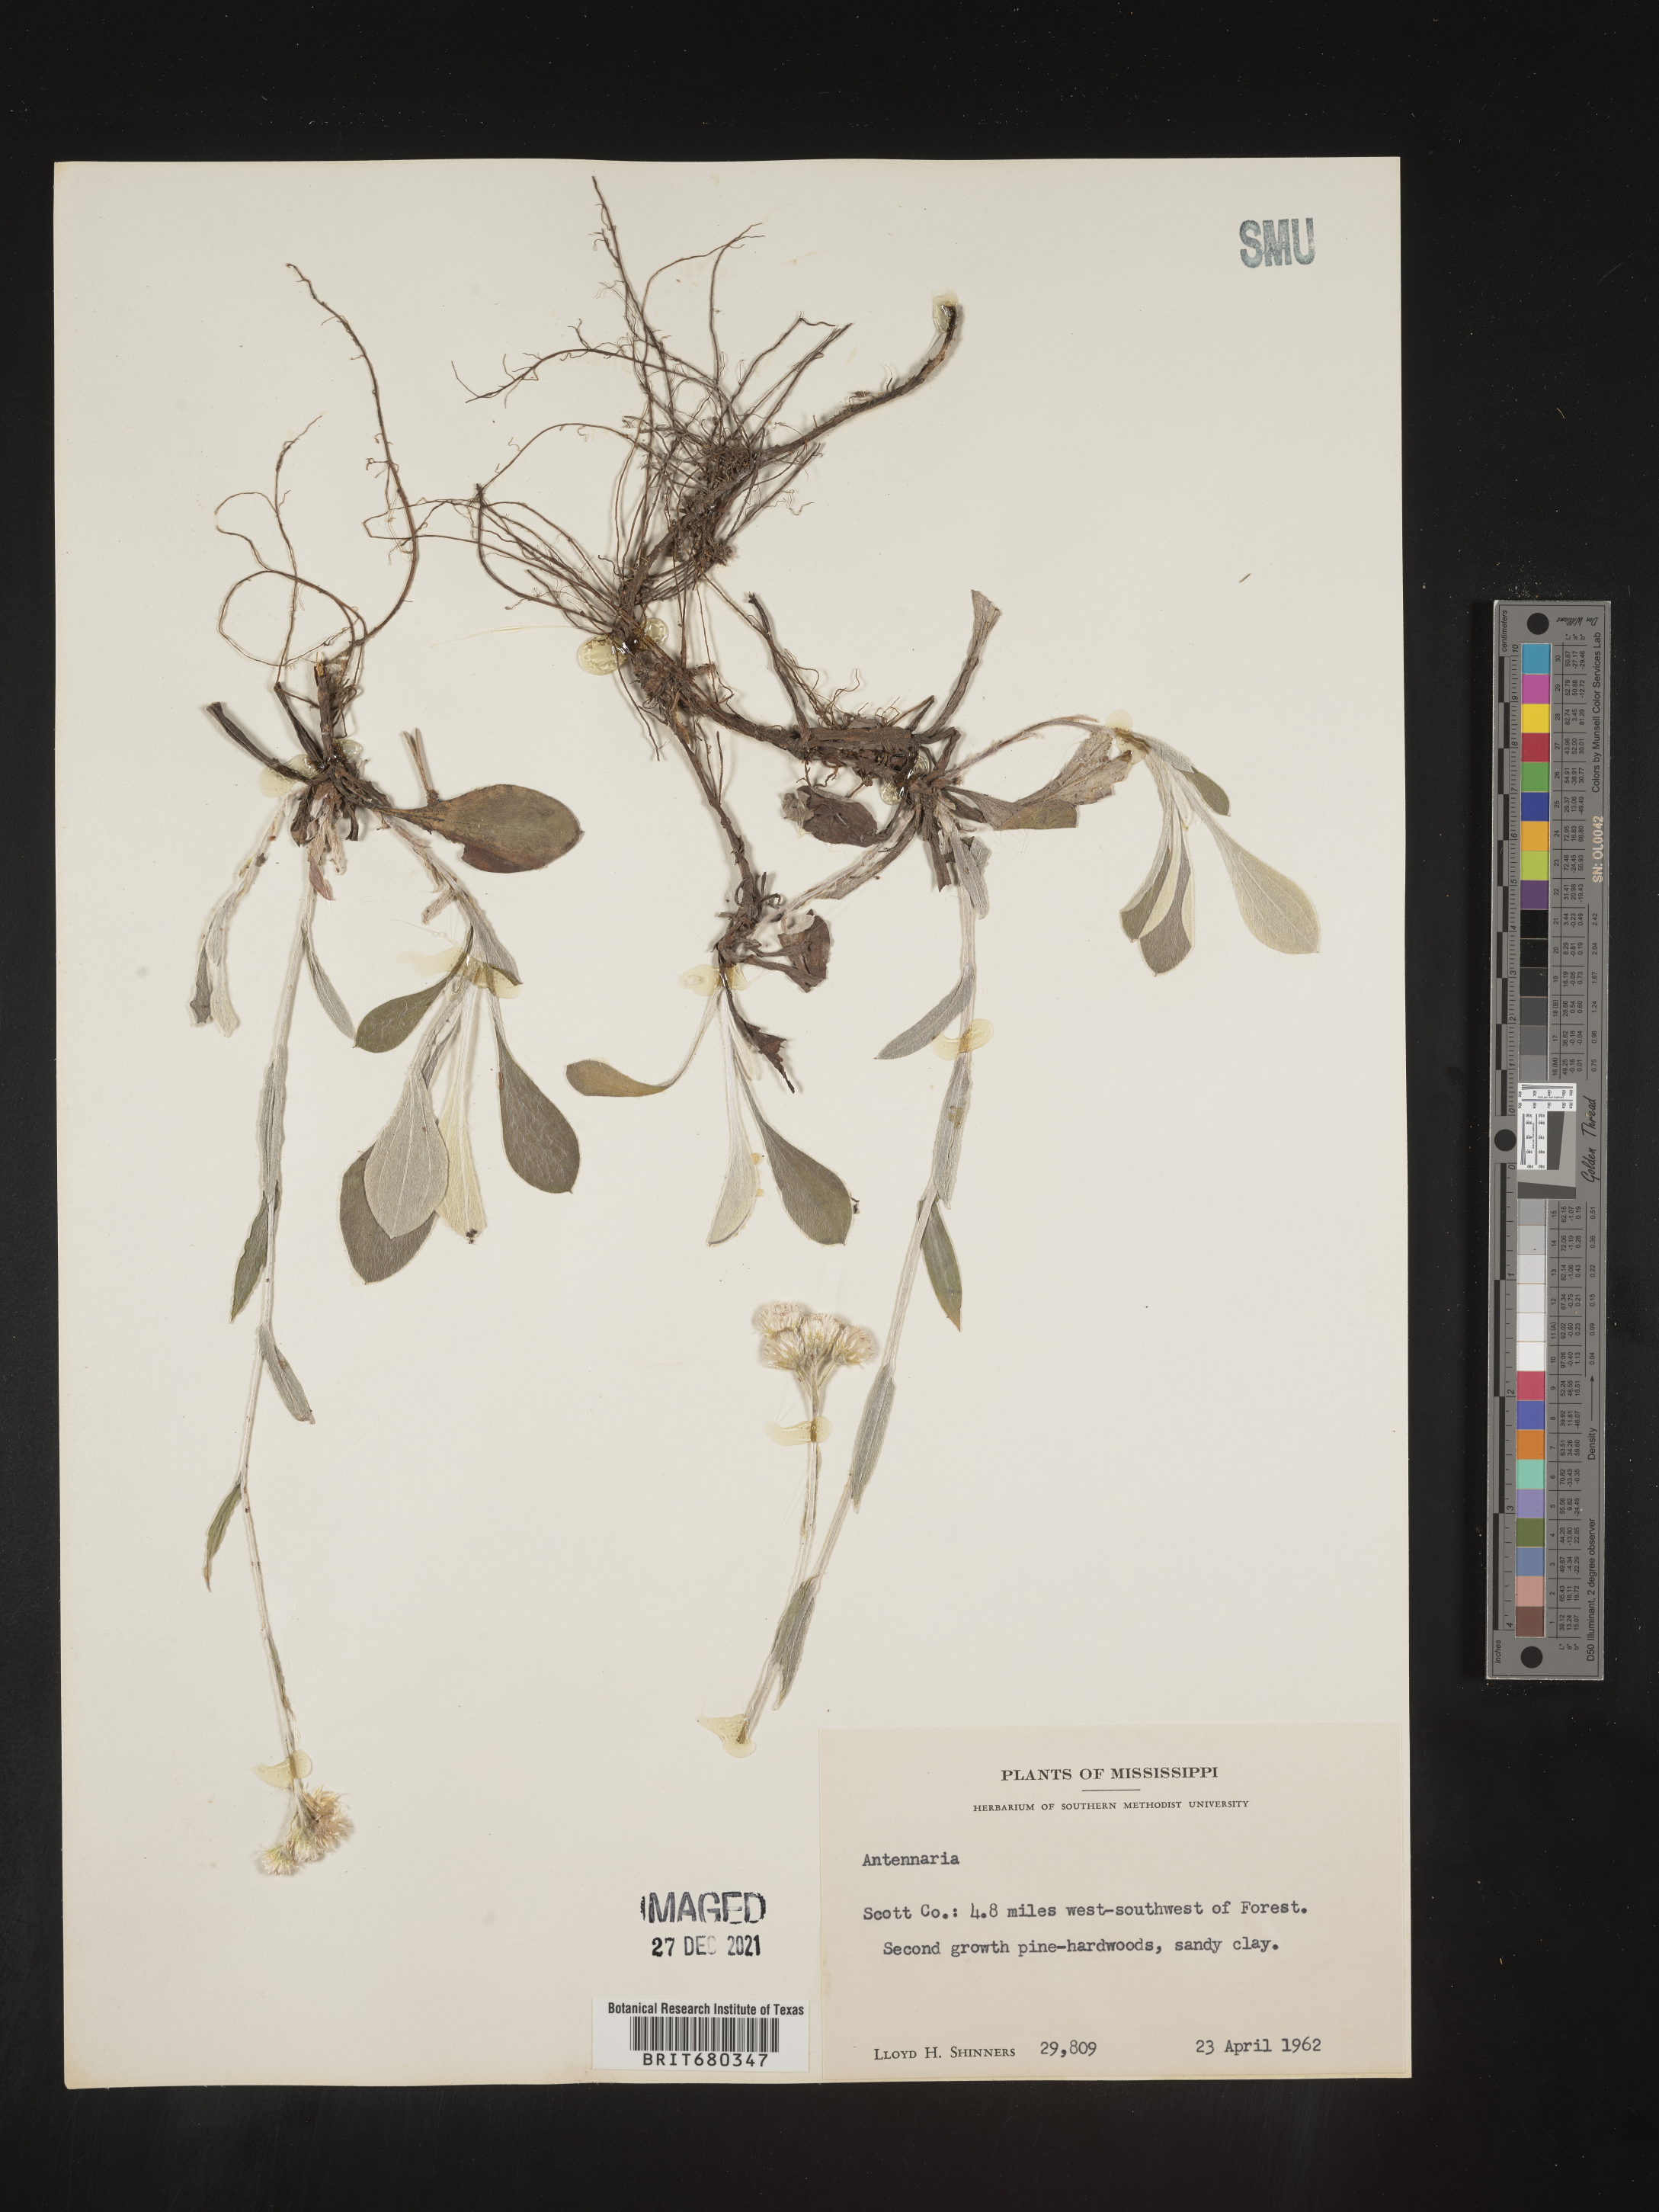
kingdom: Plantae
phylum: Tracheophyta
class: Magnoliopsida
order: Asterales
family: Asteraceae
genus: Antennaria
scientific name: Antennaria
